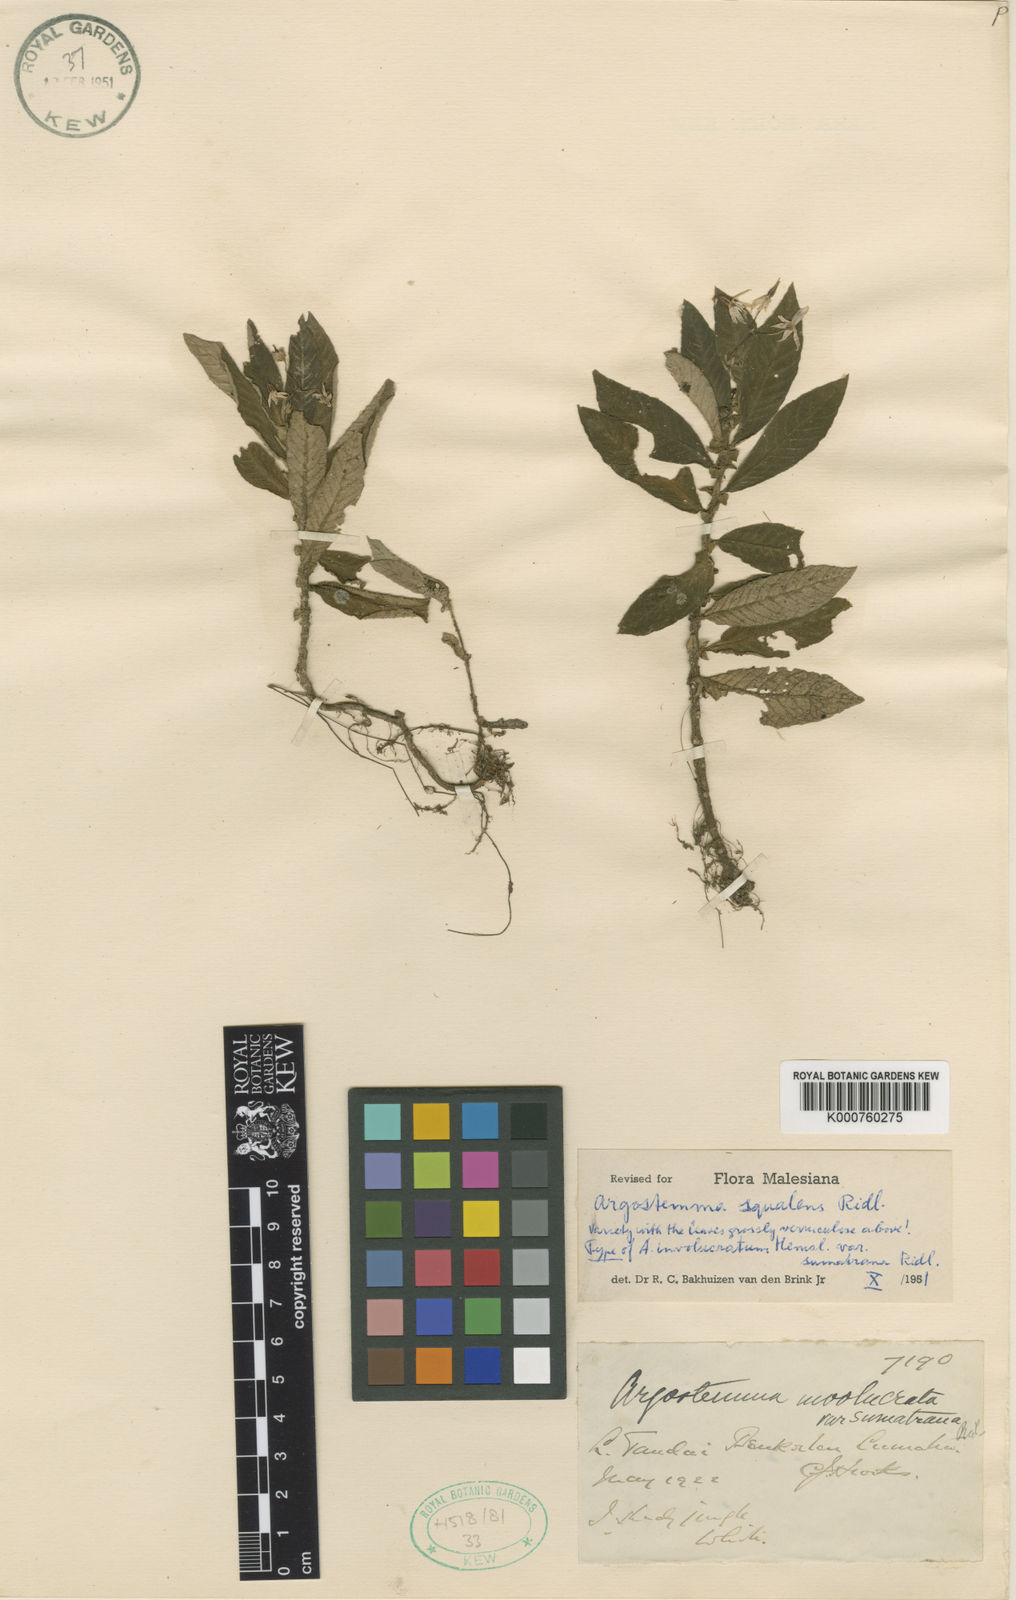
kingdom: Plantae
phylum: Tracheophyta
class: Magnoliopsida
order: Gentianales
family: Rubiaceae
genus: Argostemma
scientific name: Argostemma squalens
